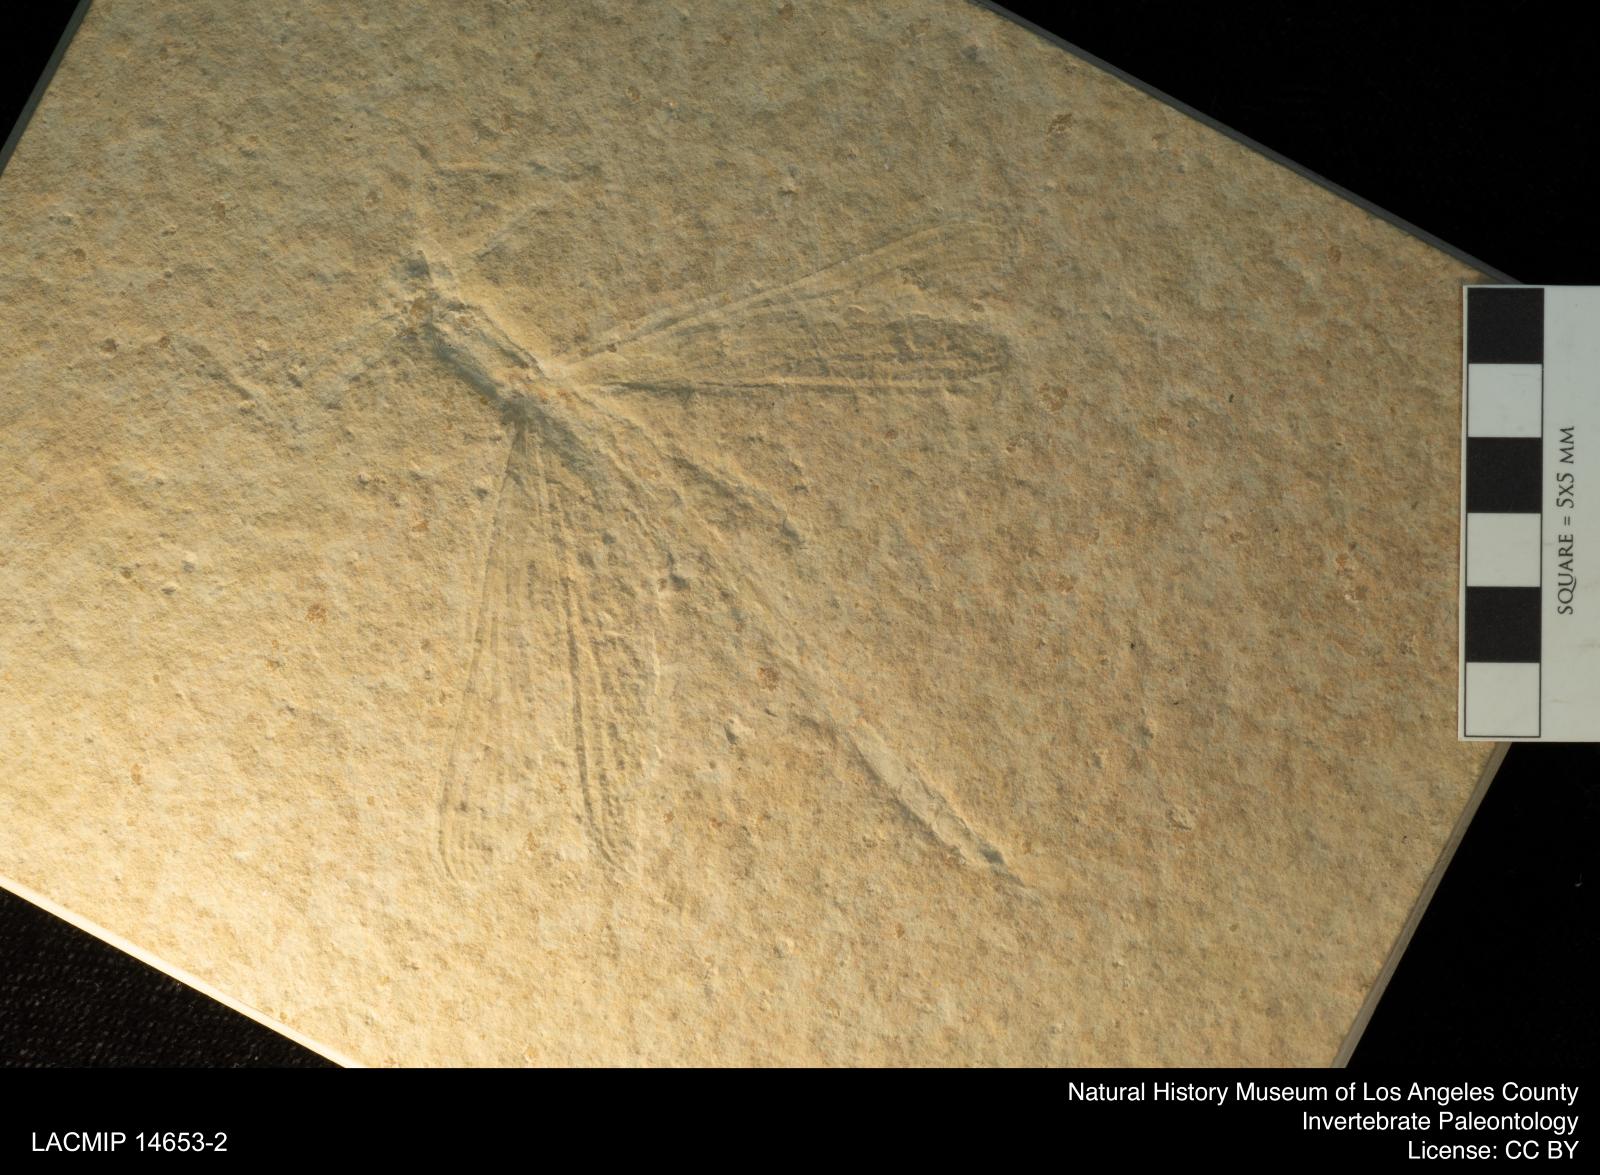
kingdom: Animalia
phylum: Arthropoda
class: Insecta
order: Odonata
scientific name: Odonata
